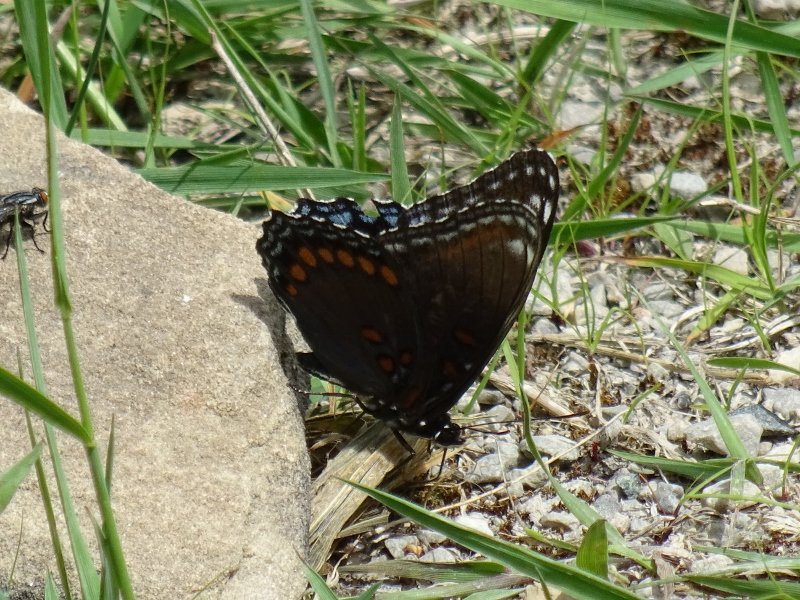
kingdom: Animalia
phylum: Arthropoda
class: Insecta
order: Lepidoptera
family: Nymphalidae
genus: Limenitis
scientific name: Limenitis astyanax
